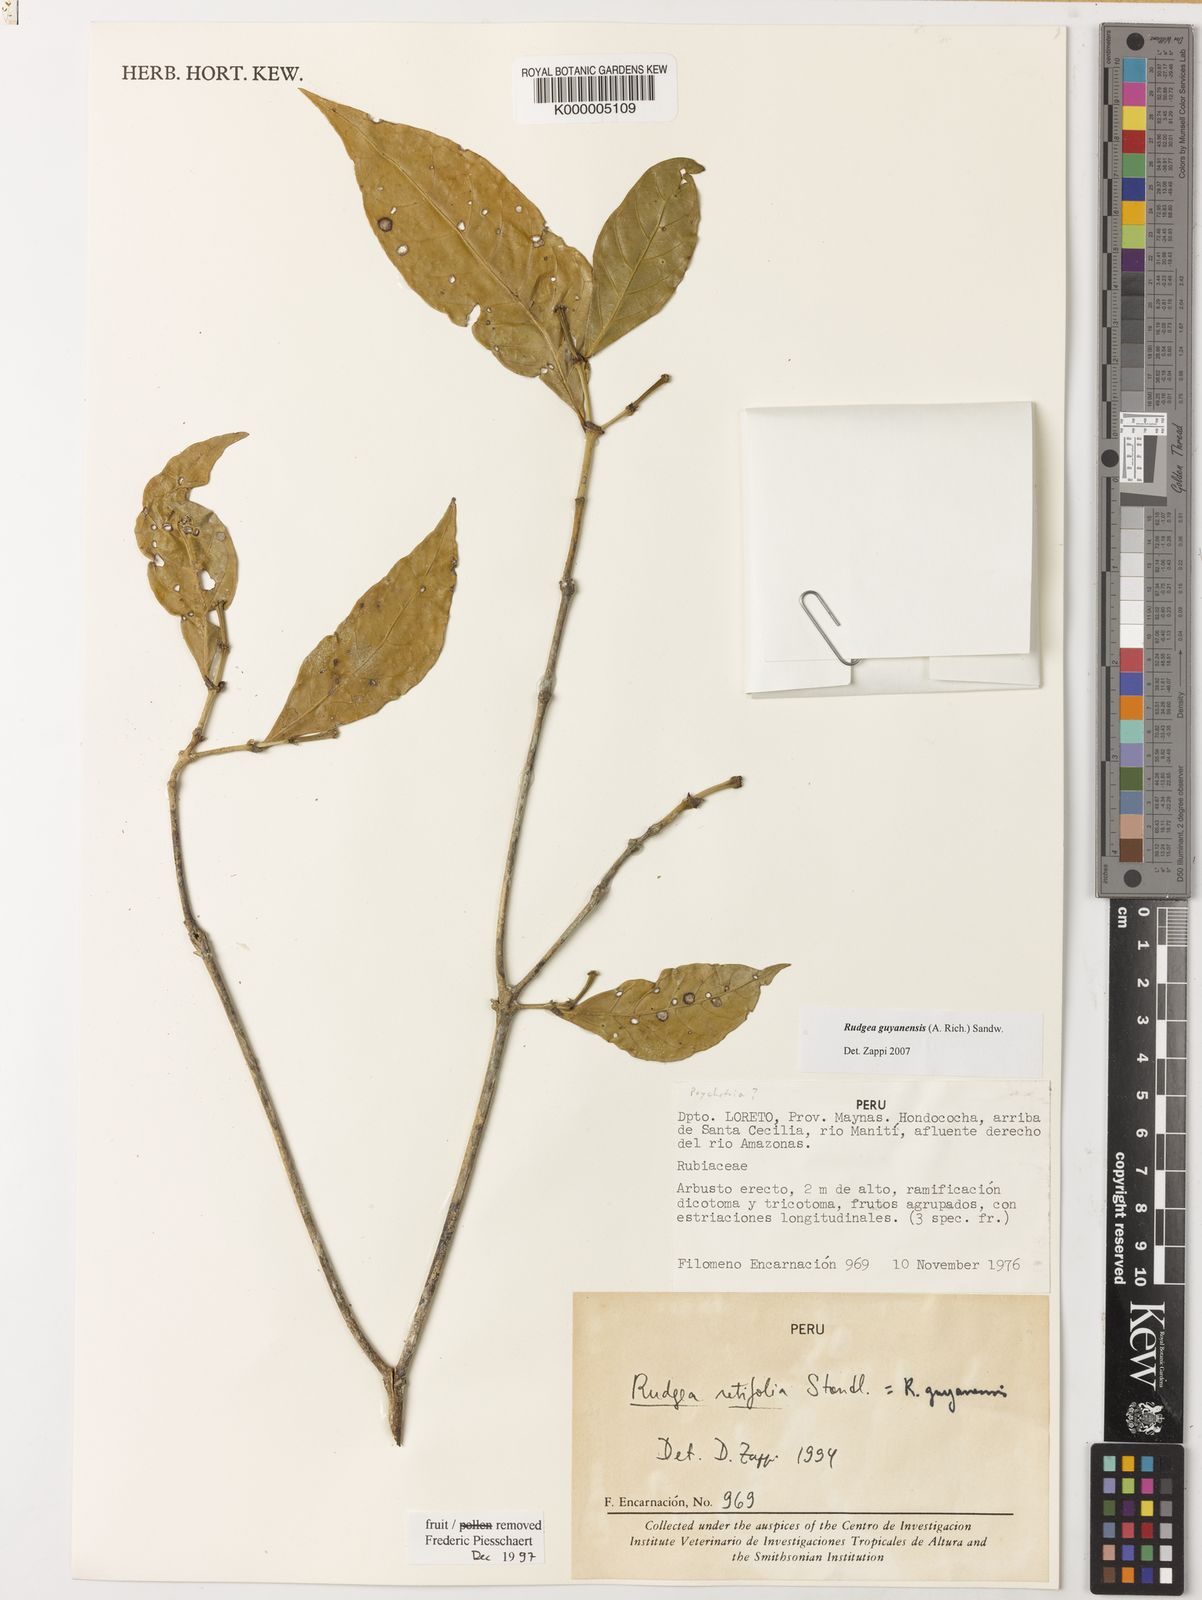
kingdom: Plantae
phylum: Tracheophyta
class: Magnoliopsida
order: Gentianales
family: Rubiaceae
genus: Rudgea
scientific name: Rudgea guianensis
